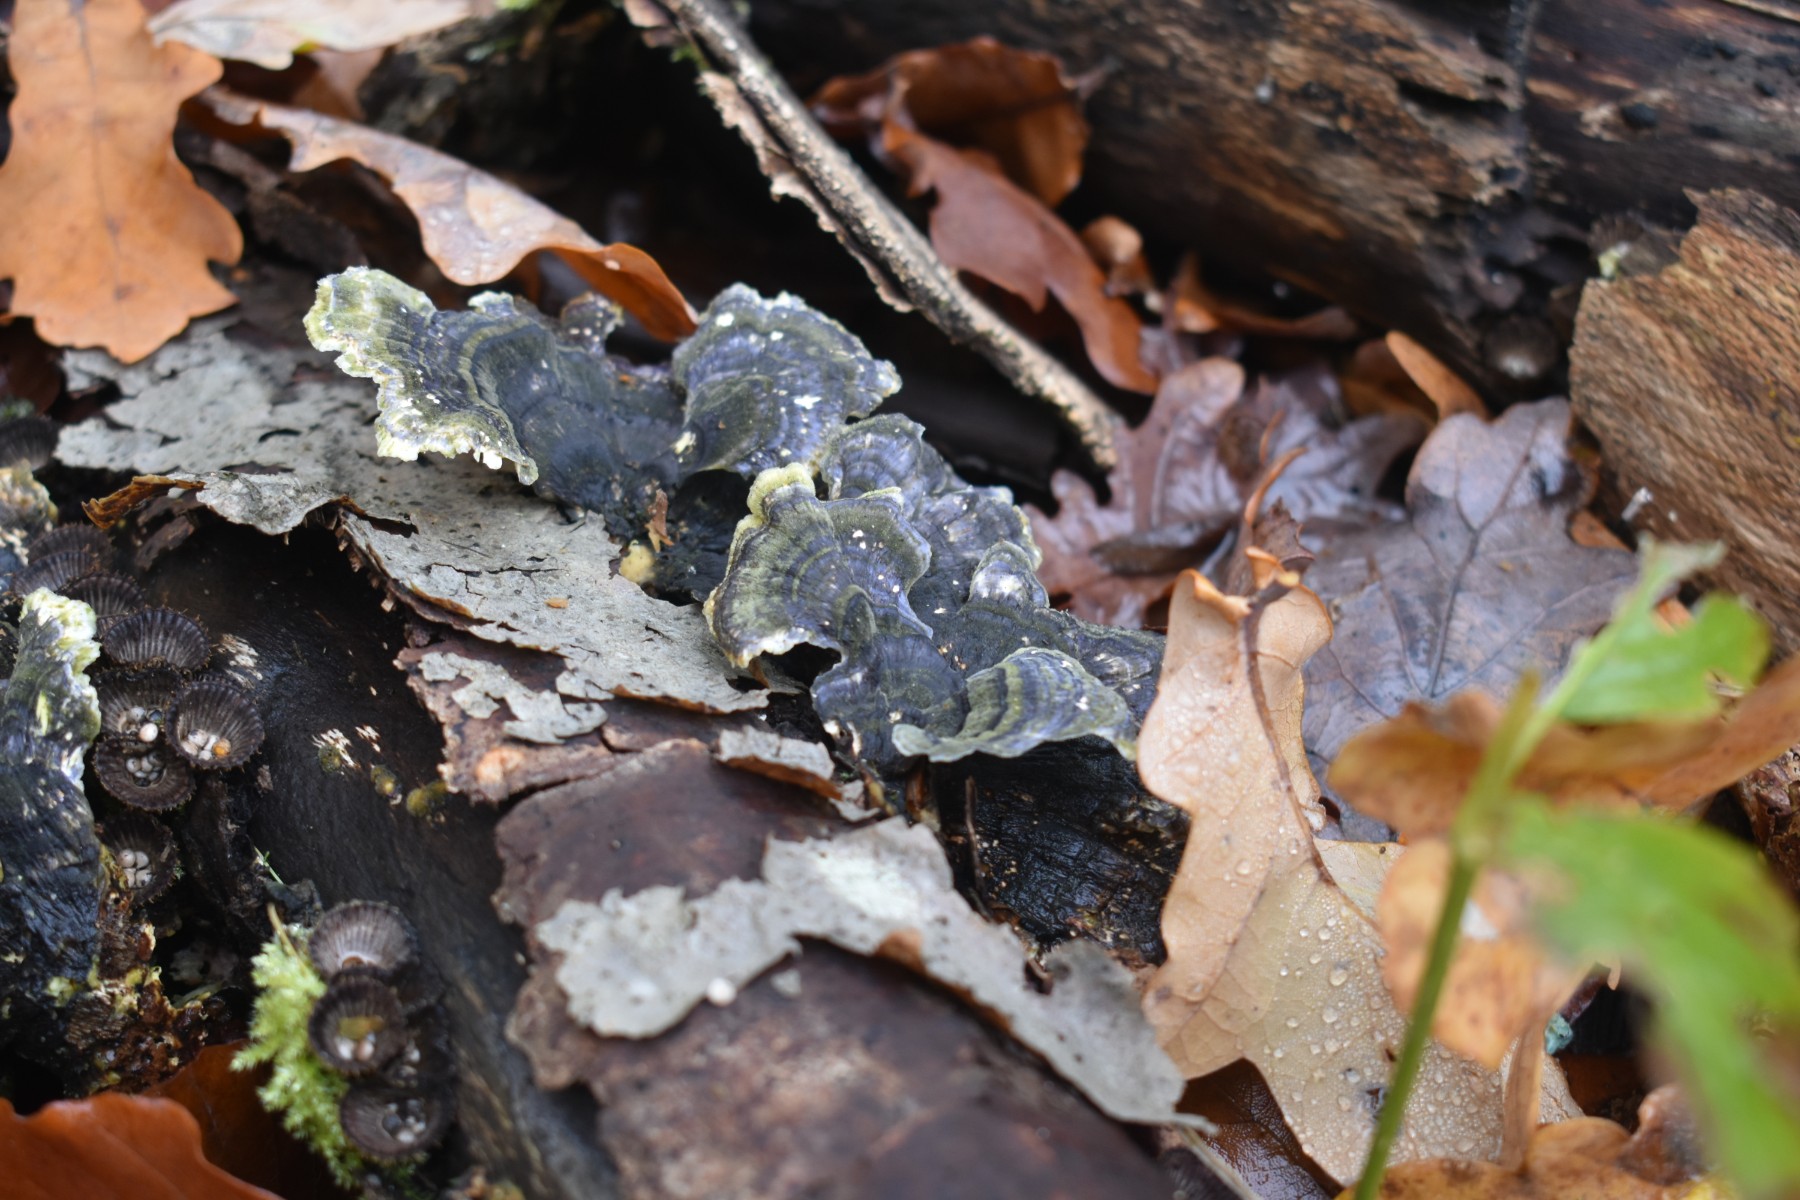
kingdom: Fungi
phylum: Basidiomycota
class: Agaricomycetes
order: Polyporales
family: Polyporaceae
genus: Trametes
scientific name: Trametes versicolor
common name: broget læderporesvamp
